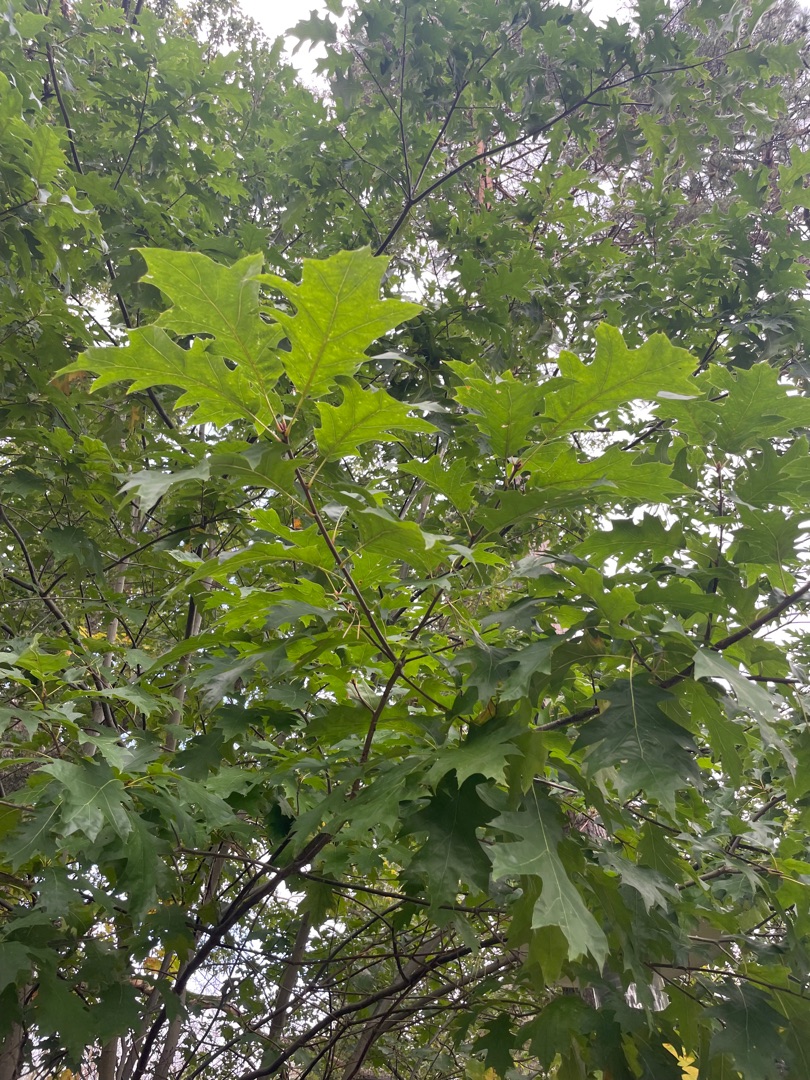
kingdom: Plantae
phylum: Tracheophyta
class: Magnoliopsida
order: Fagales
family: Fagaceae
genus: Quercus
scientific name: Quercus rubra
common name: Rød-eg
